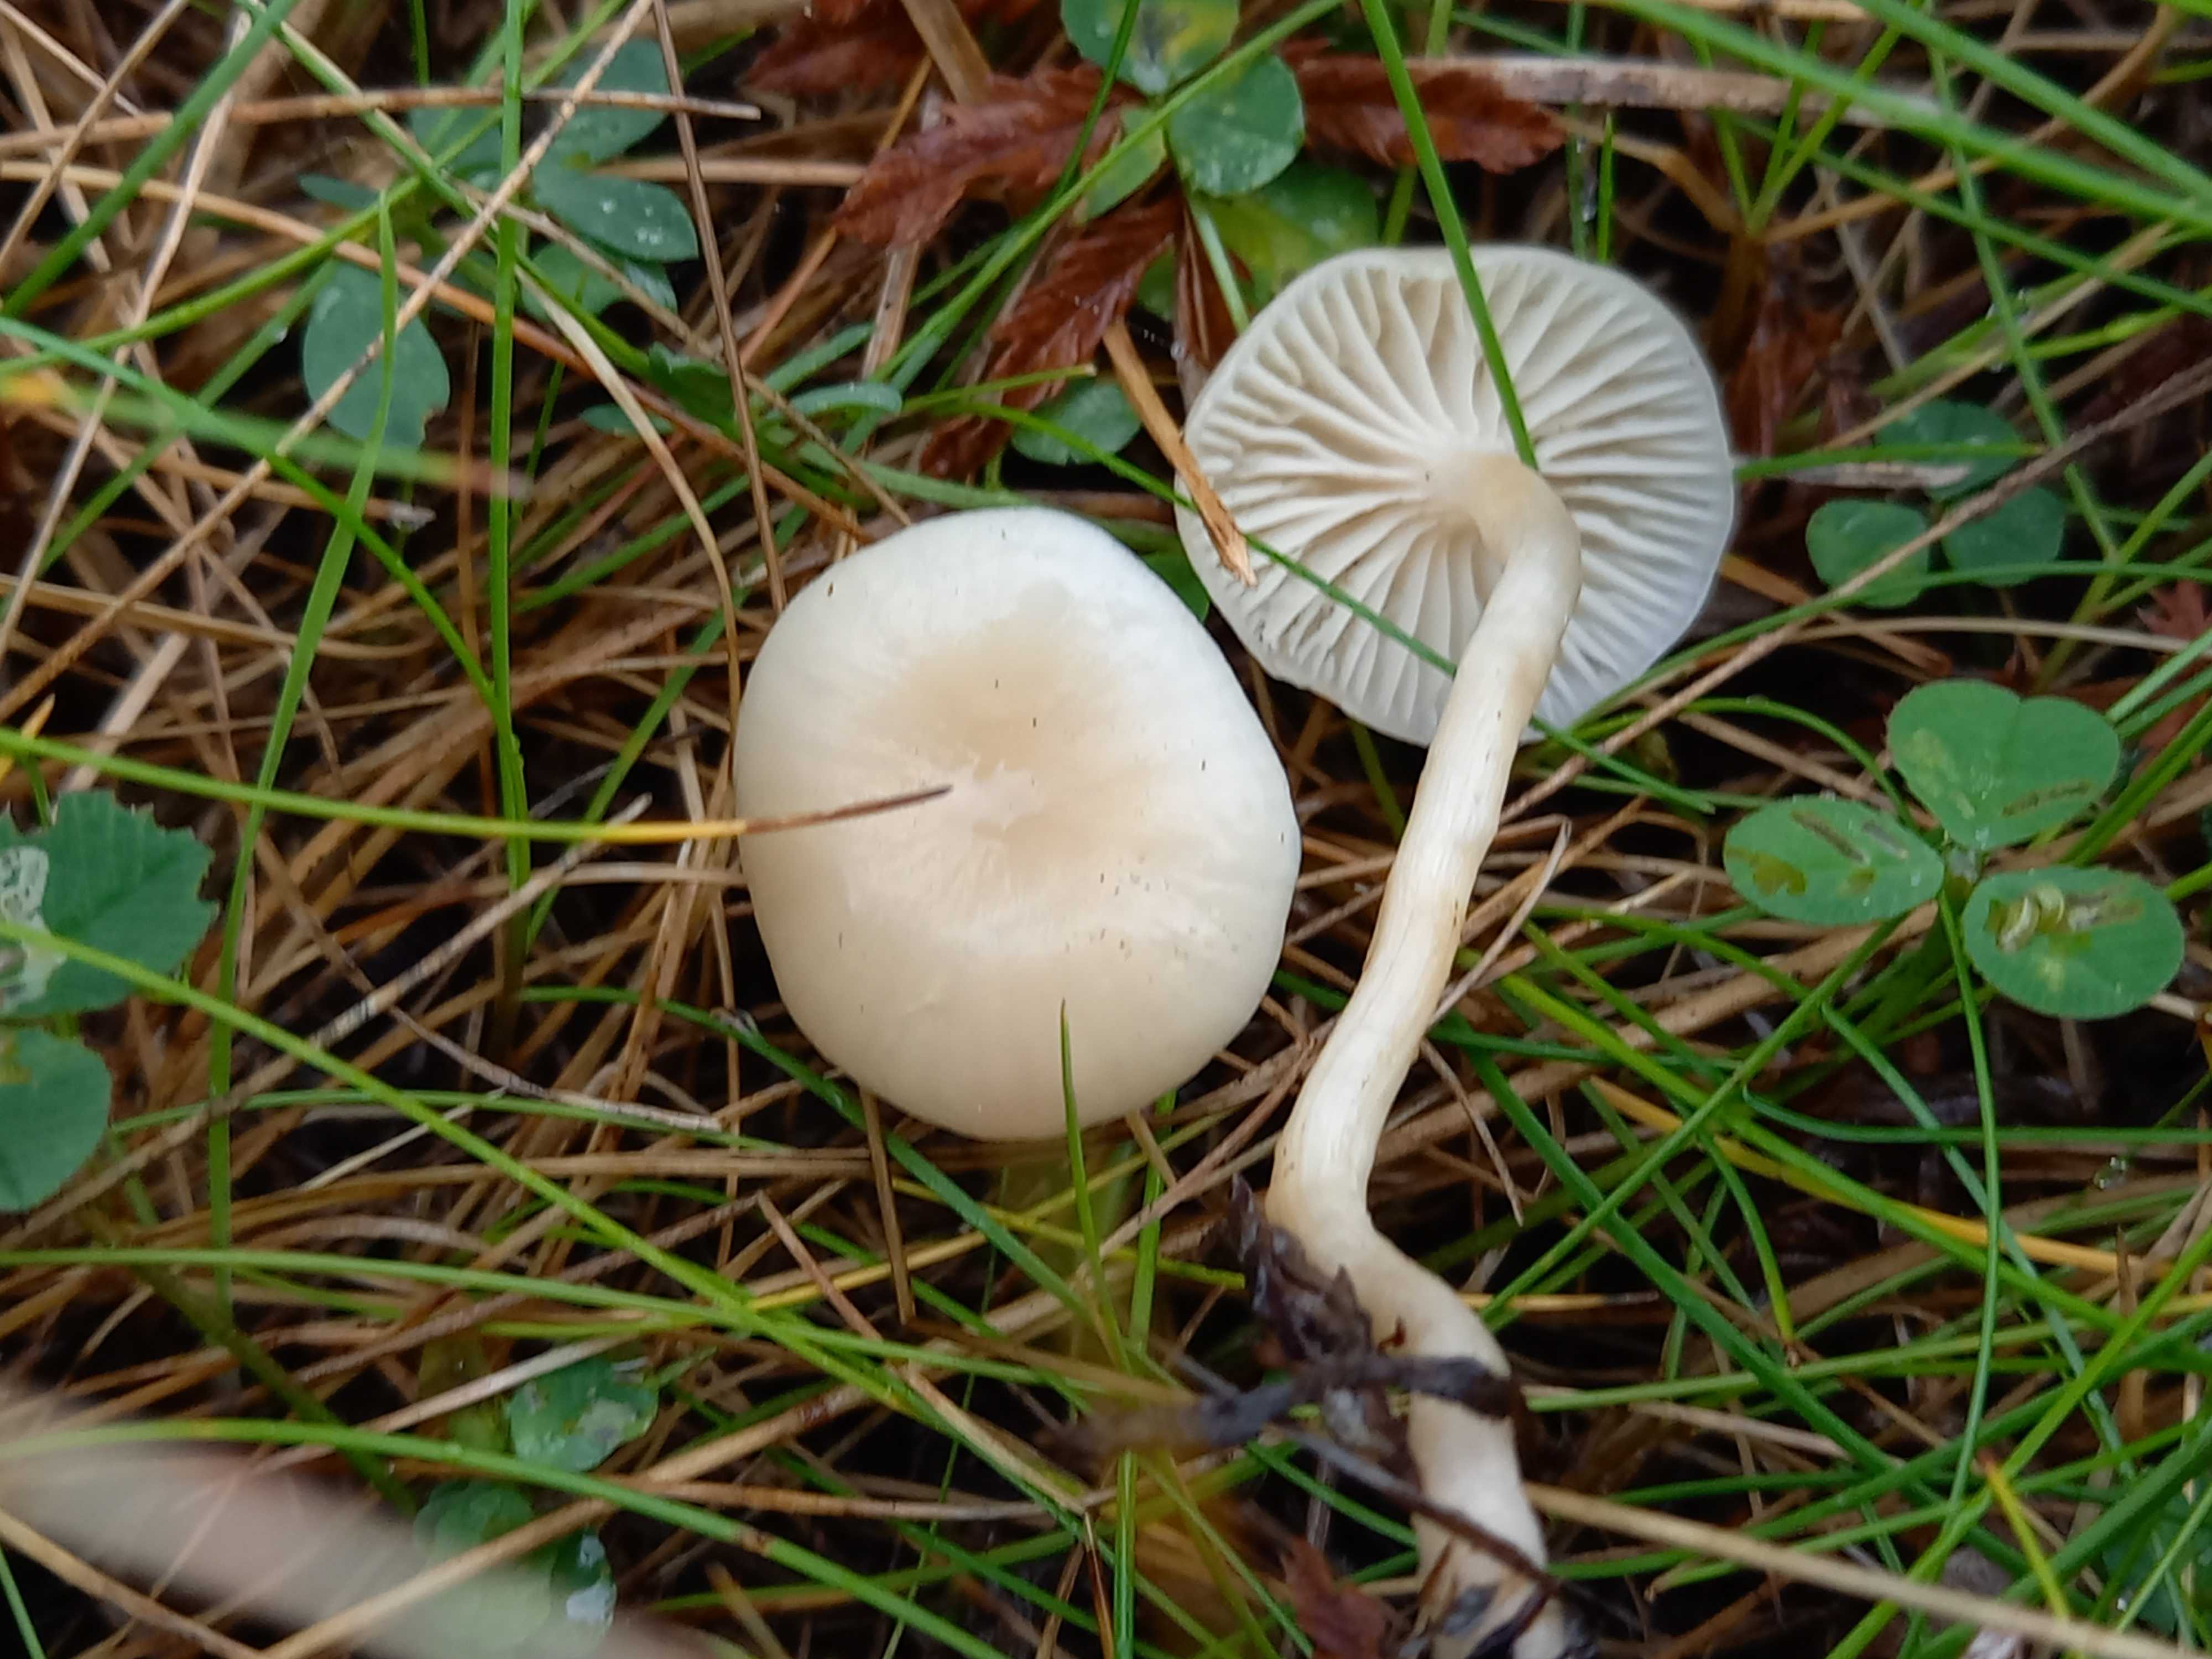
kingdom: Fungi
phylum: Basidiomycota
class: Agaricomycetes
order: Agaricales
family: Hygrophoraceae
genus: Cuphophyllus
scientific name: Cuphophyllus russocoriaceus
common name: ruslæder-vokshat
